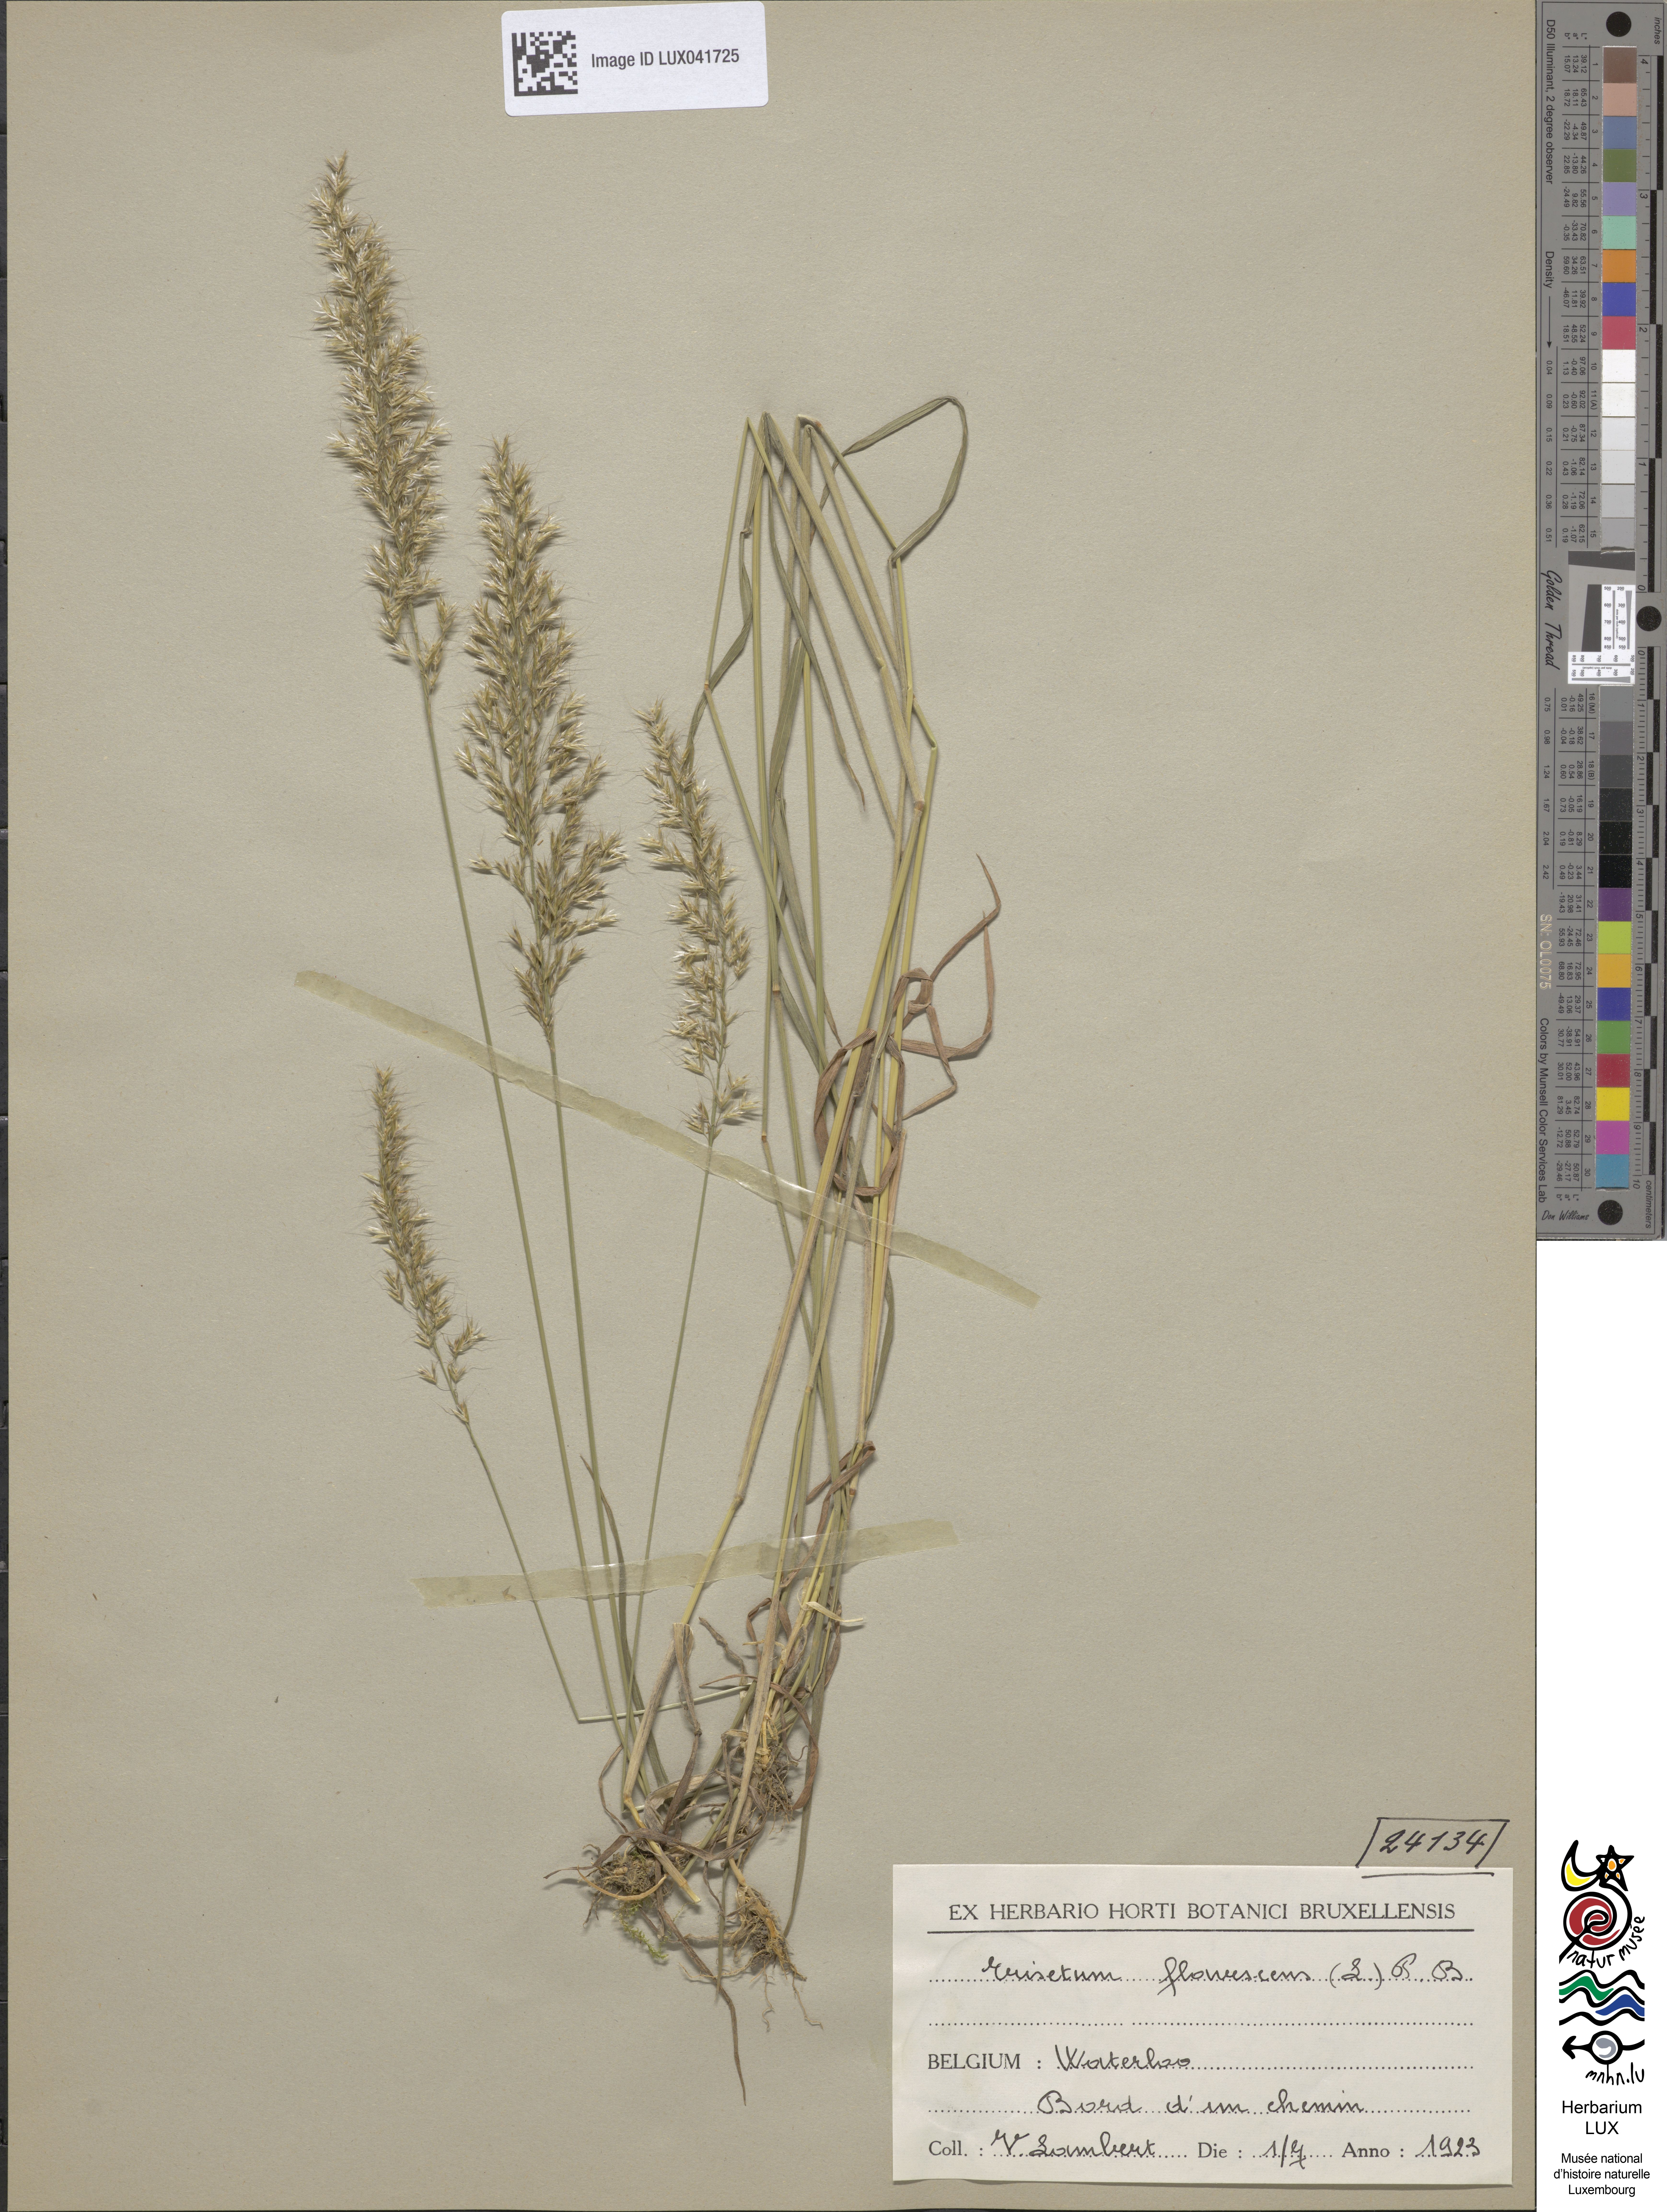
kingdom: Plantae
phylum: Tracheophyta
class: Liliopsida
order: Poales
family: Poaceae
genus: Trisetum
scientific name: Trisetum flavescens
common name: Yellow oat-grass
